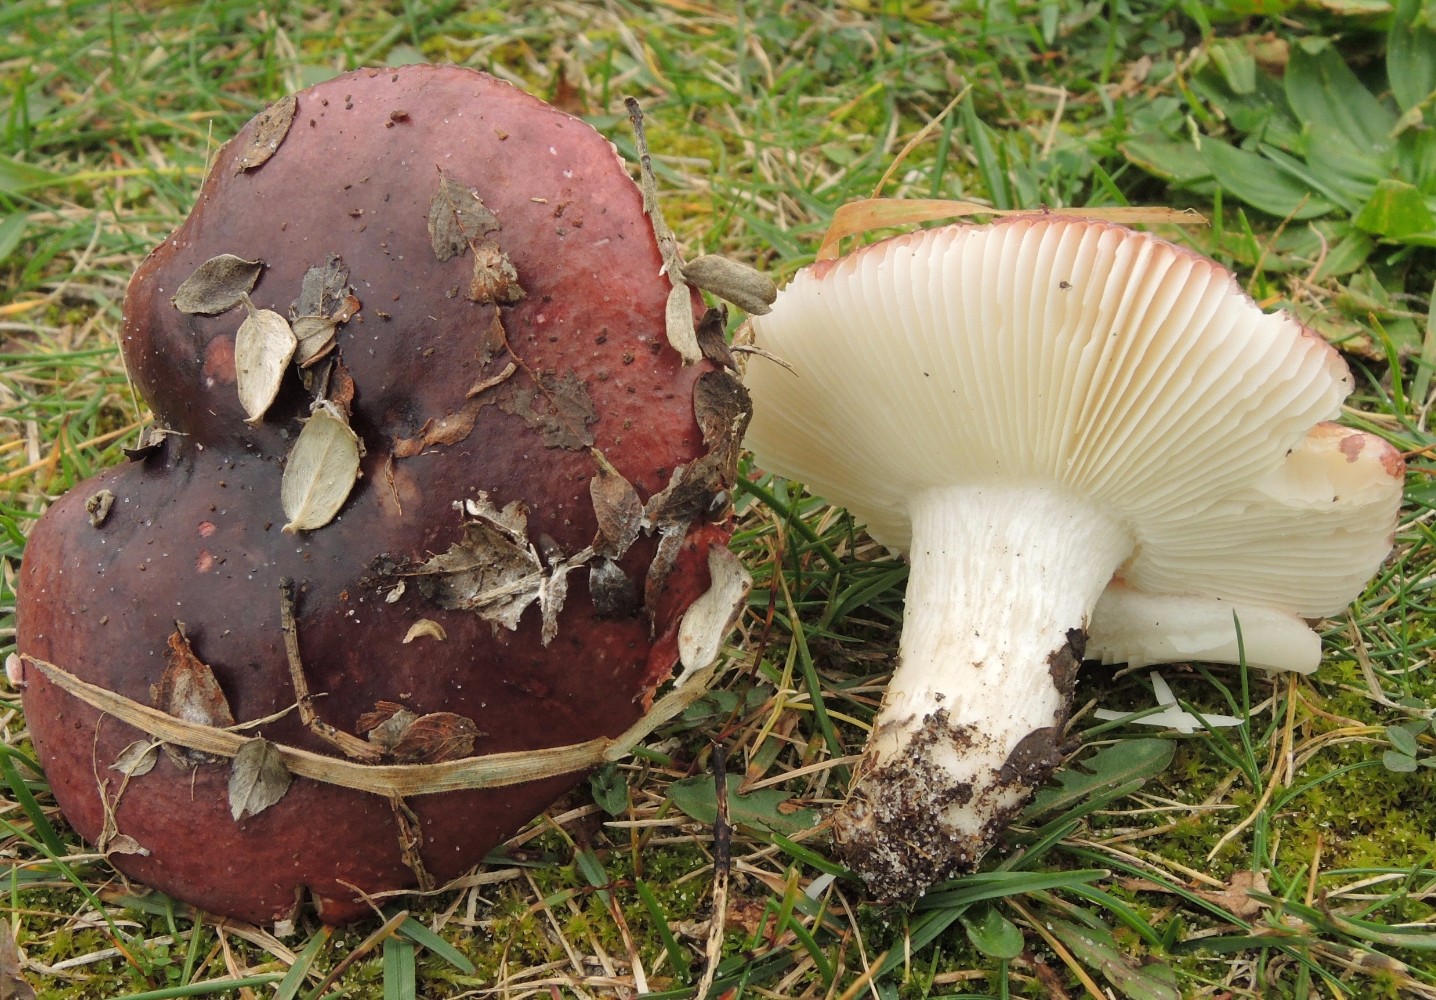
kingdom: Fungi
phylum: Basidiomycota
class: Agaricomycetes
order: Russulales
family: Russulaceae
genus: Russula
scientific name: Russula laccata
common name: klit-skørhat
